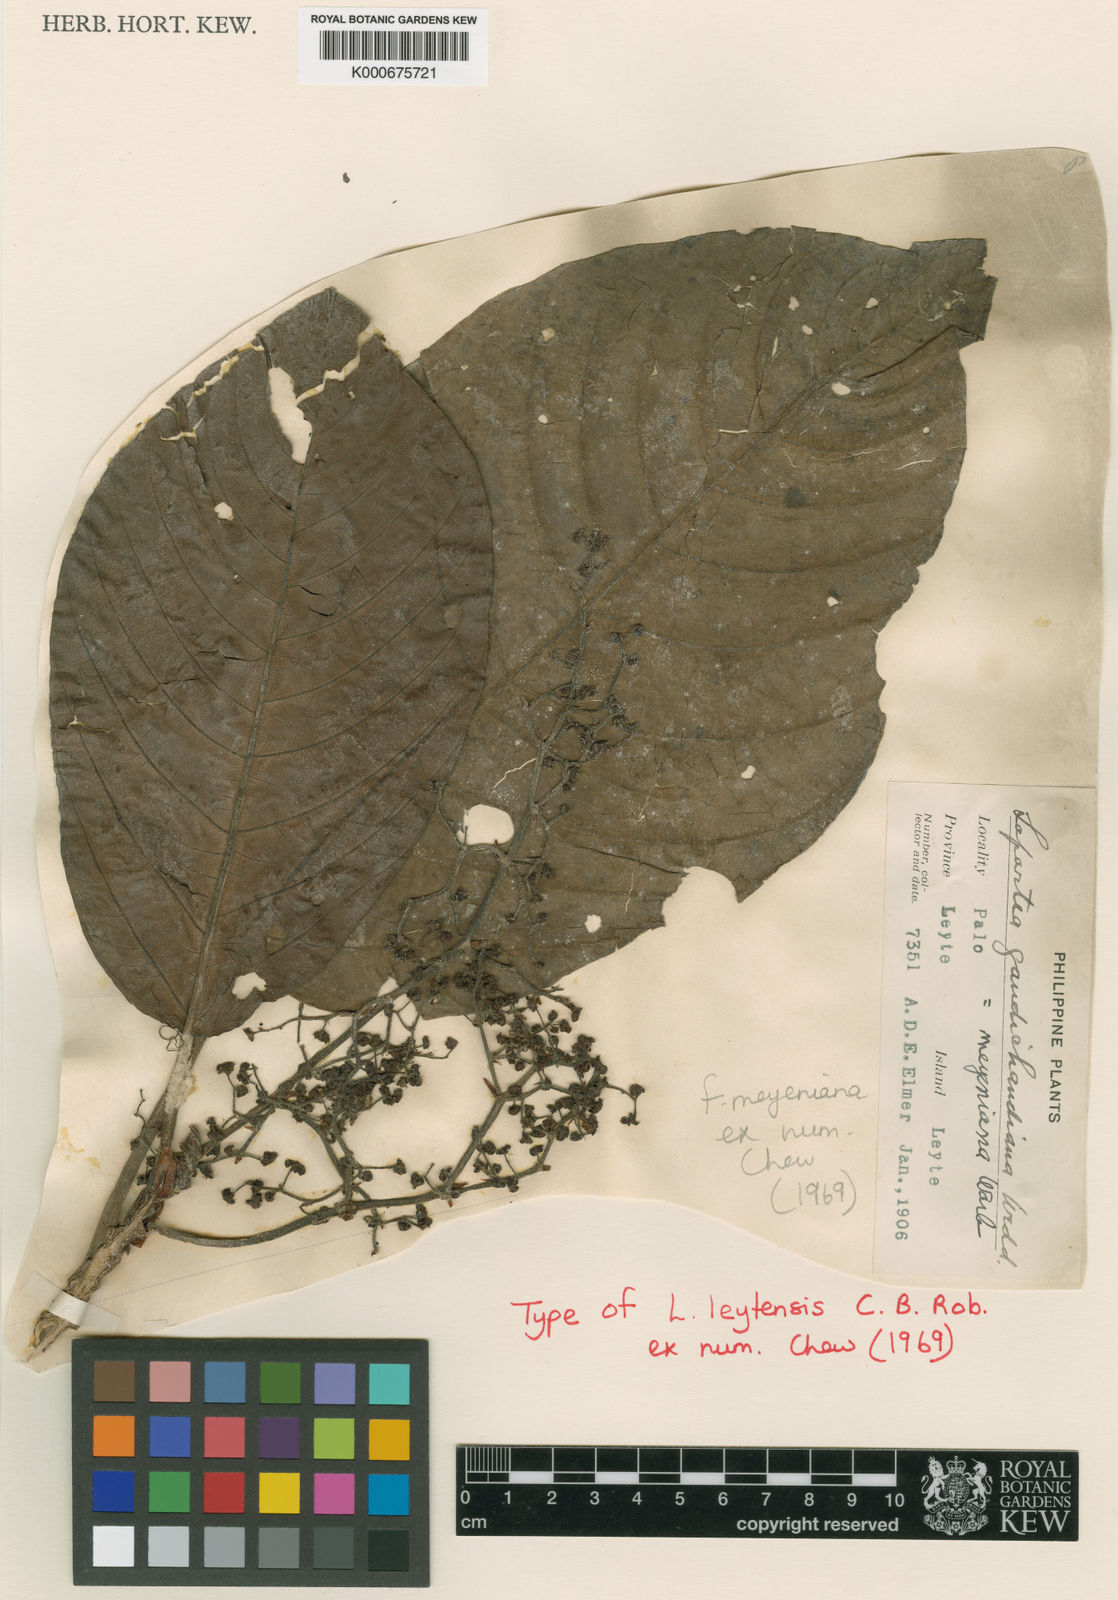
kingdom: Plantae
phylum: Tracheophyta
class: Magnoliopsida
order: Rosales
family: Urticaceae
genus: Dendrocnide
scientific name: Dendrocnide meyeniana
